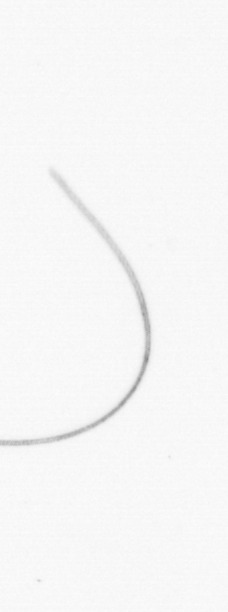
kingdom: Chromista
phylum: Ochrophyta
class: Bacillariophyceae
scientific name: Bacillariophyceae
